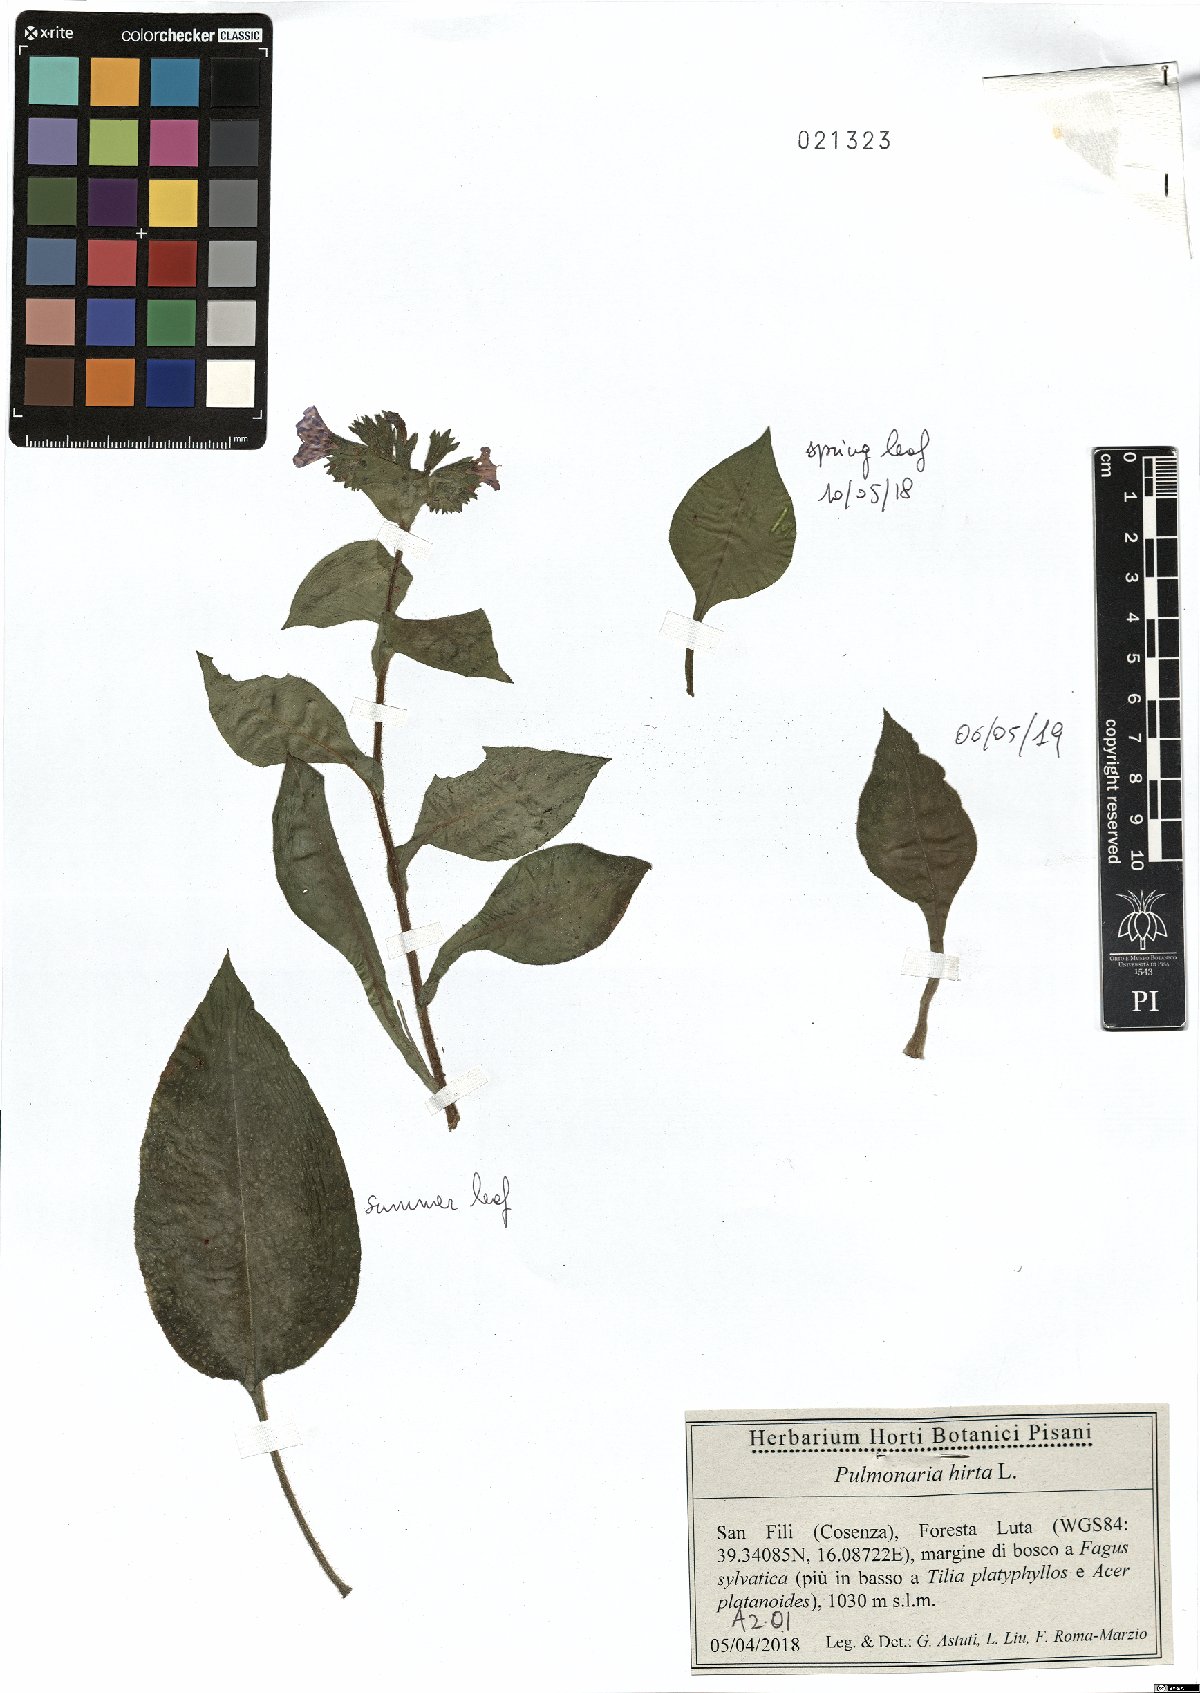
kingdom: Plantae
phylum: Tracheophyta
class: Magnoliopsida
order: Boraginales
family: Boraginaceae
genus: Pulmonaria
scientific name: Pulmonaria hirta
